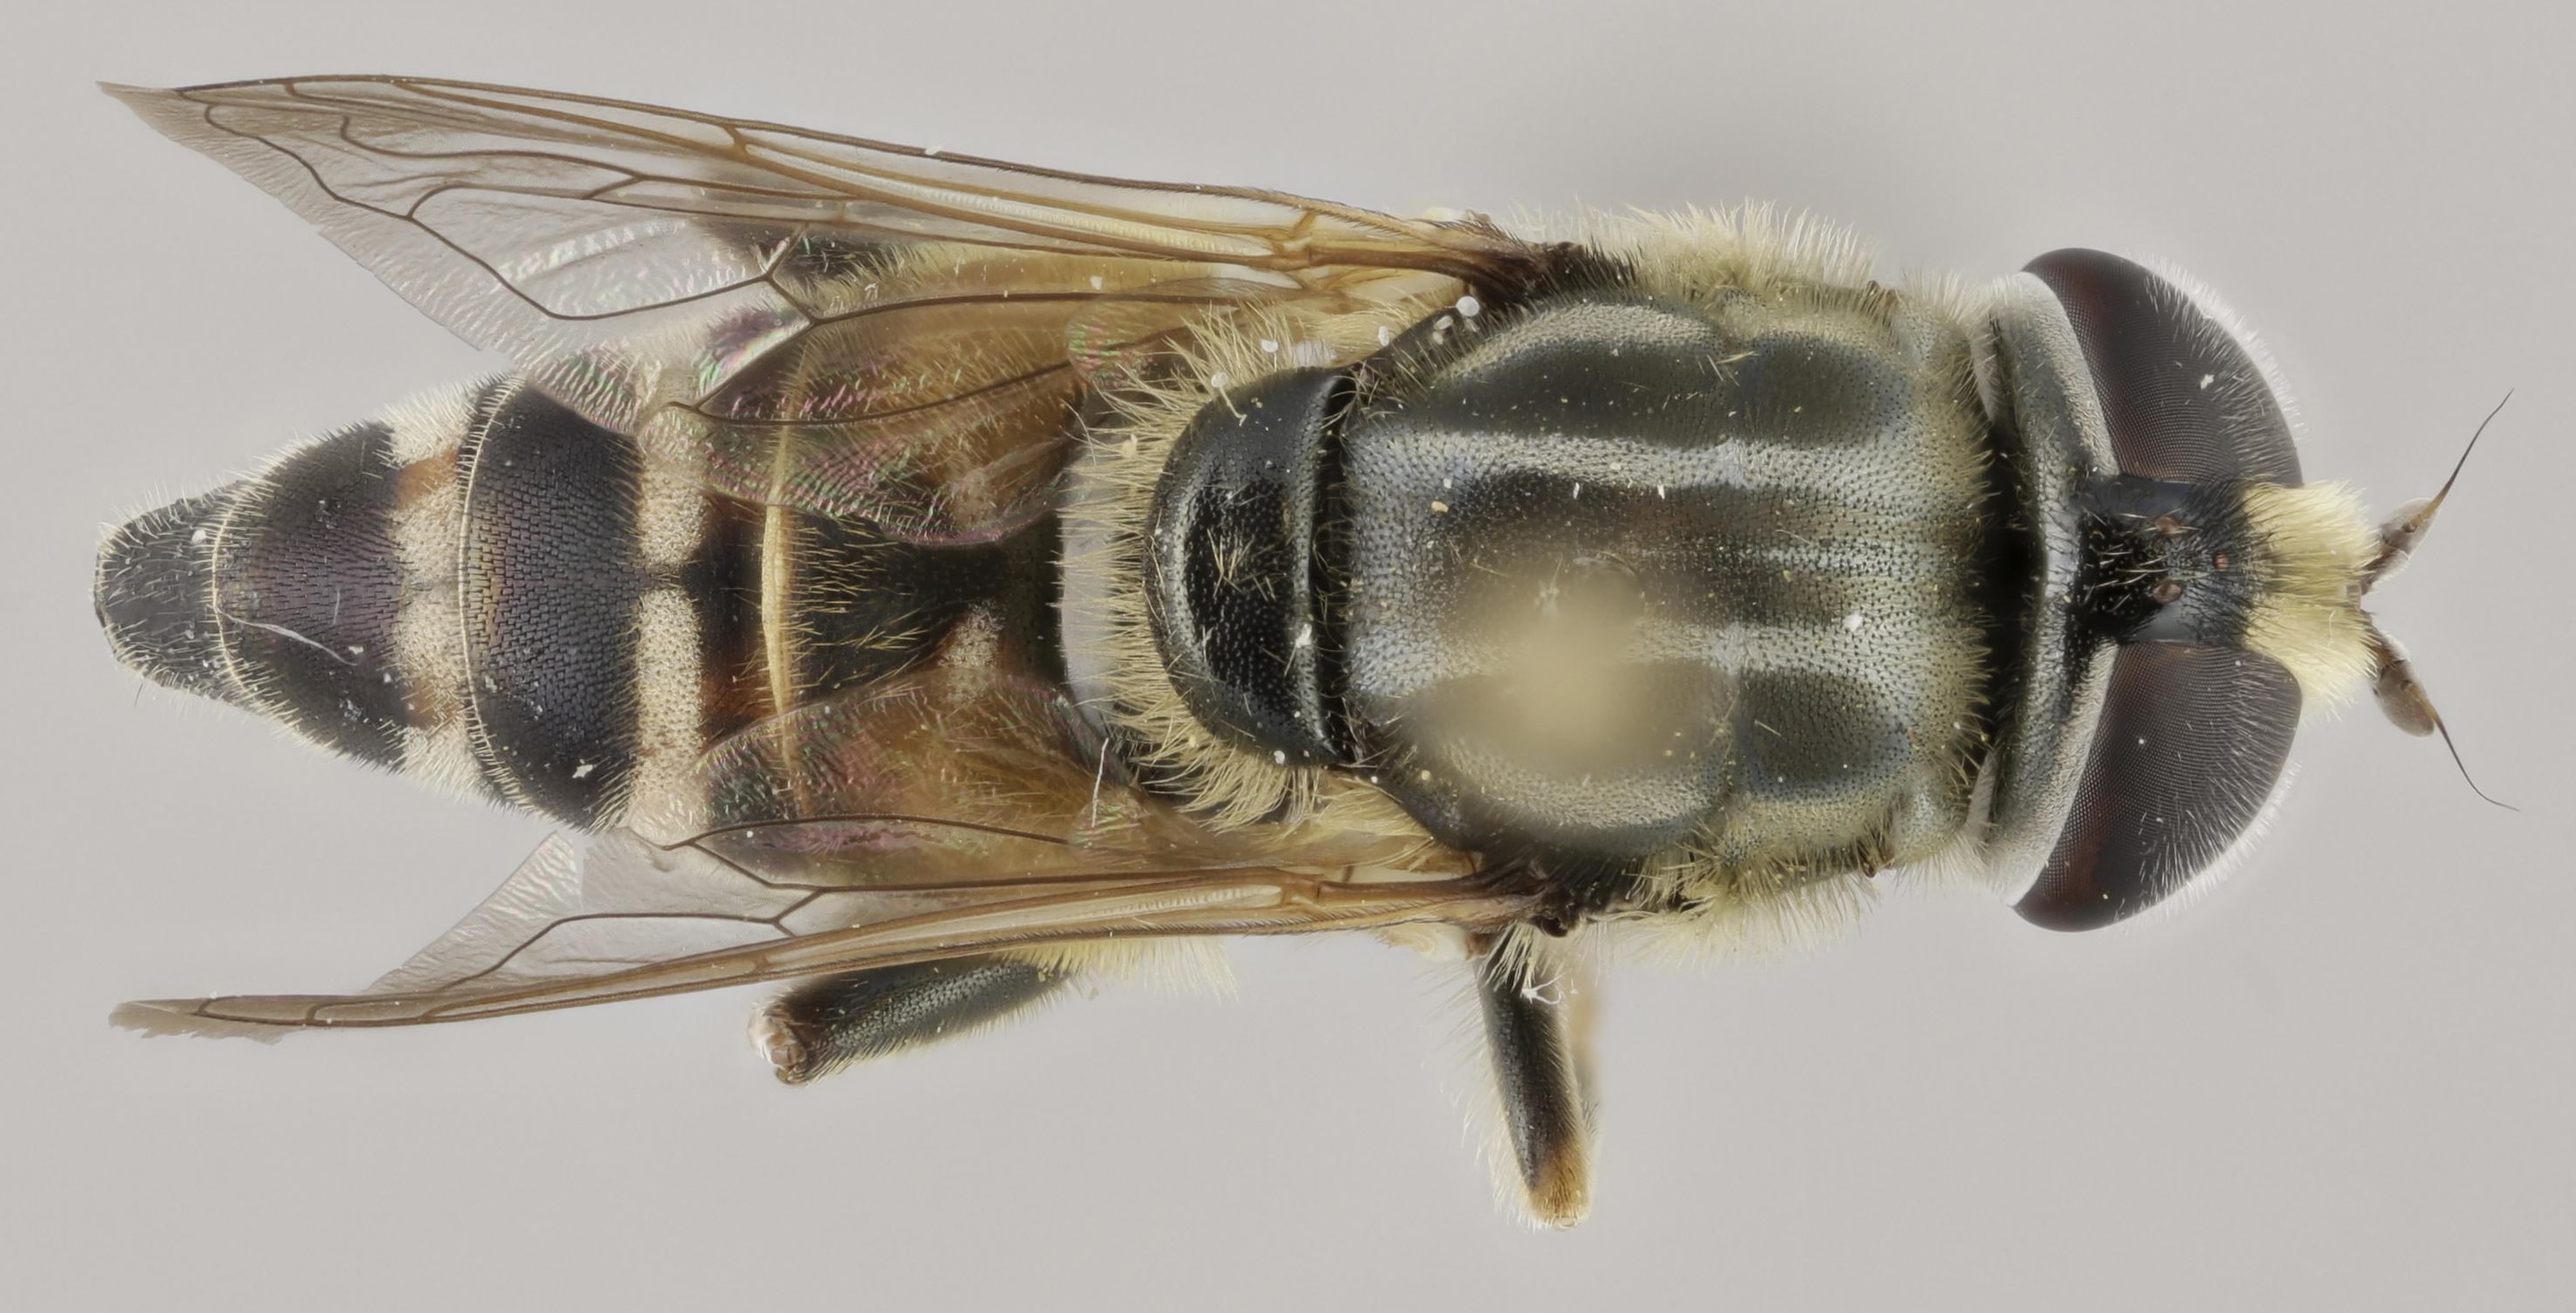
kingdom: Animalia
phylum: Arthropoda
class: Insecta
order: Diptera
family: Syrphidae
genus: Merodon
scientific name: Merodon avidus
